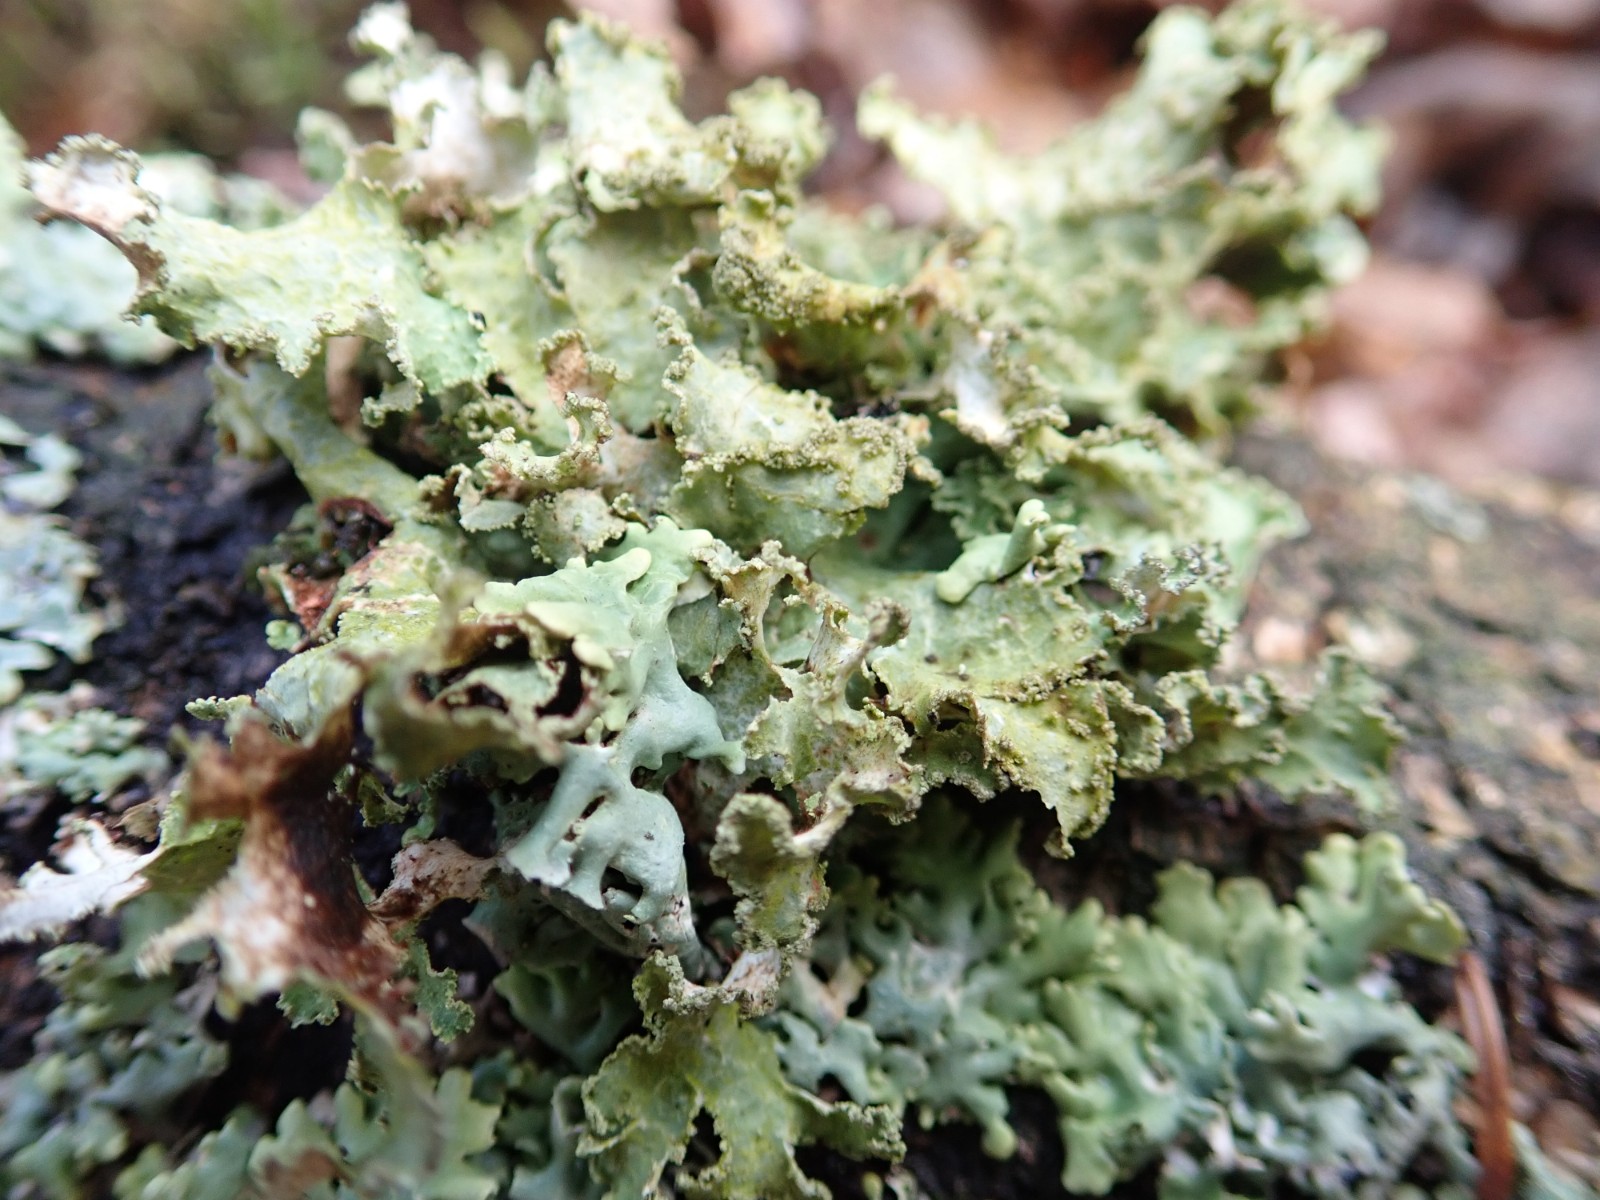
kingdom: Fungi
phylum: Ascomycota
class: Lecanoromycetes
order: Lecanorales
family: Parmeliaceae
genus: Platismatia
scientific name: Platismatia glauca
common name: blågrå papirlav
